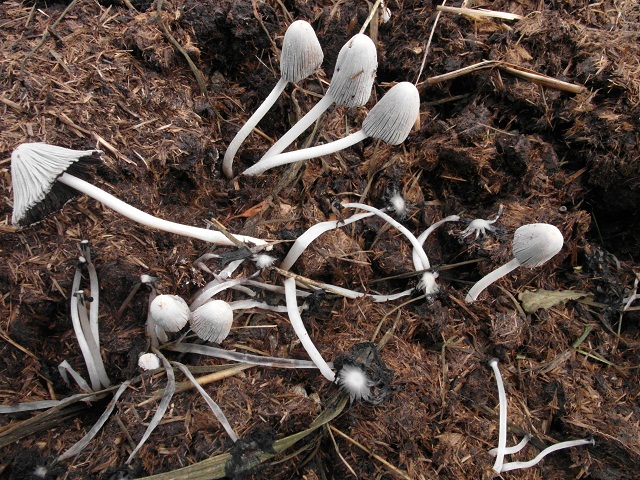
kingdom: Fungi
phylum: Basidiomycota
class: Agaricomycetes
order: Agaricales
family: Psathyrellaceae
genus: Coprinopsis
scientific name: Coprinopsis cothurnata
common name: rustfodet blækhat
